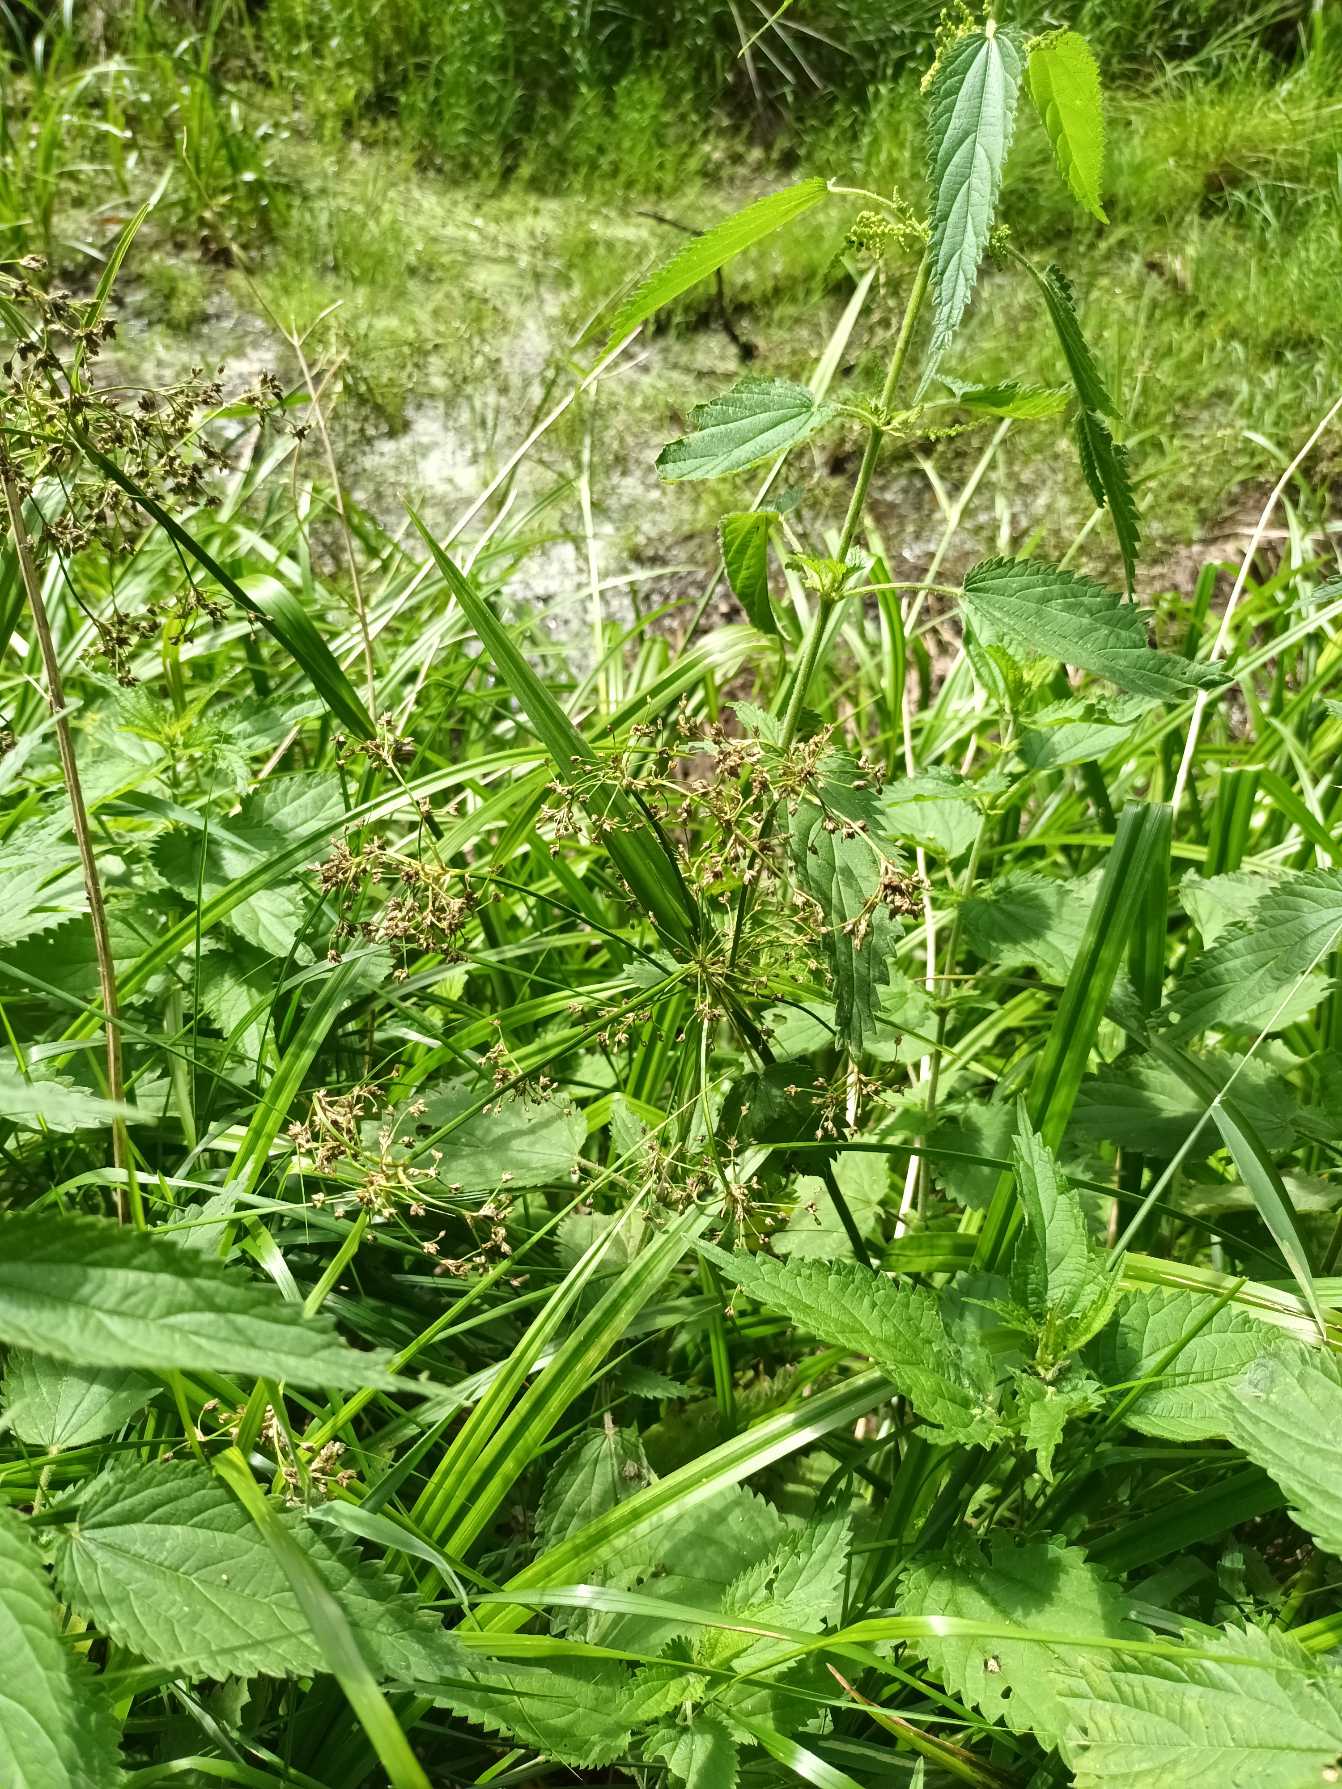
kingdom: Plantae
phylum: Tracheophyta
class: Liliopsida
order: Poales
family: Cyperaceae
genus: Scirpus
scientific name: Scirpus sylvaticus
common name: Skov-kogleaks
